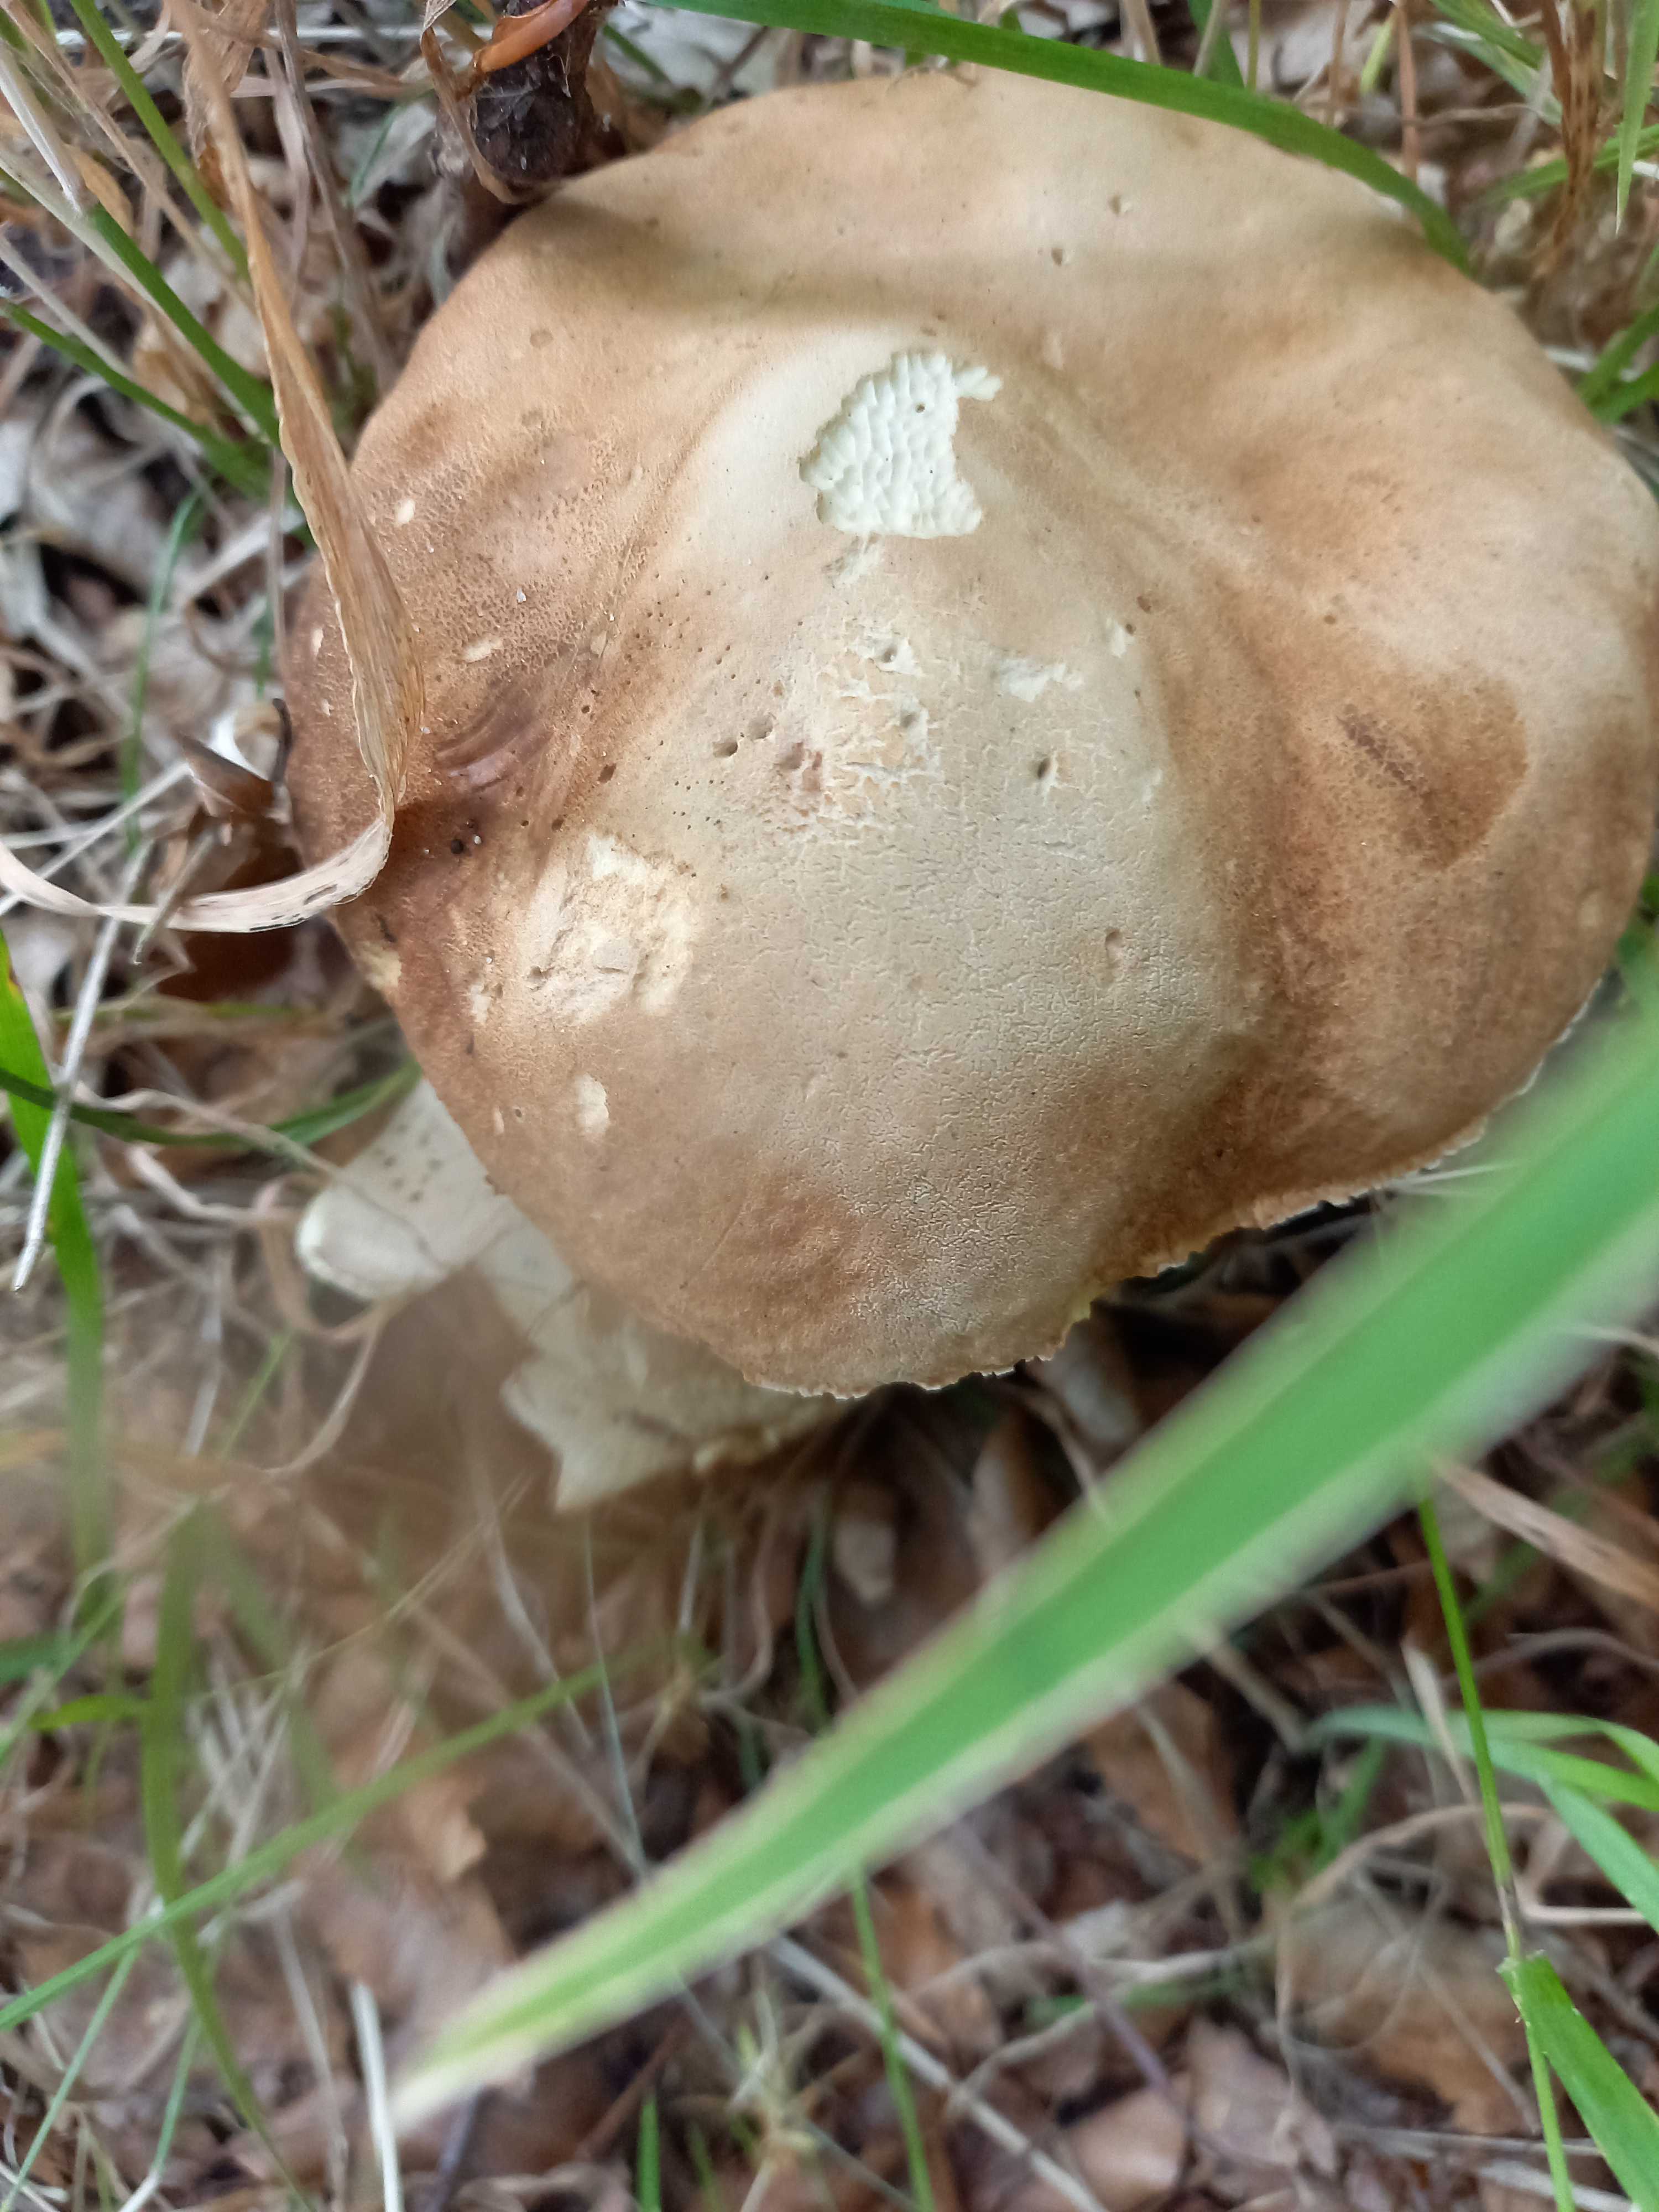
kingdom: Fungi
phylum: Basidiomycota
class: Agaricomycetes
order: Boletales
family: Boletaceae
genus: Boletus
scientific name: Boletus edulis
